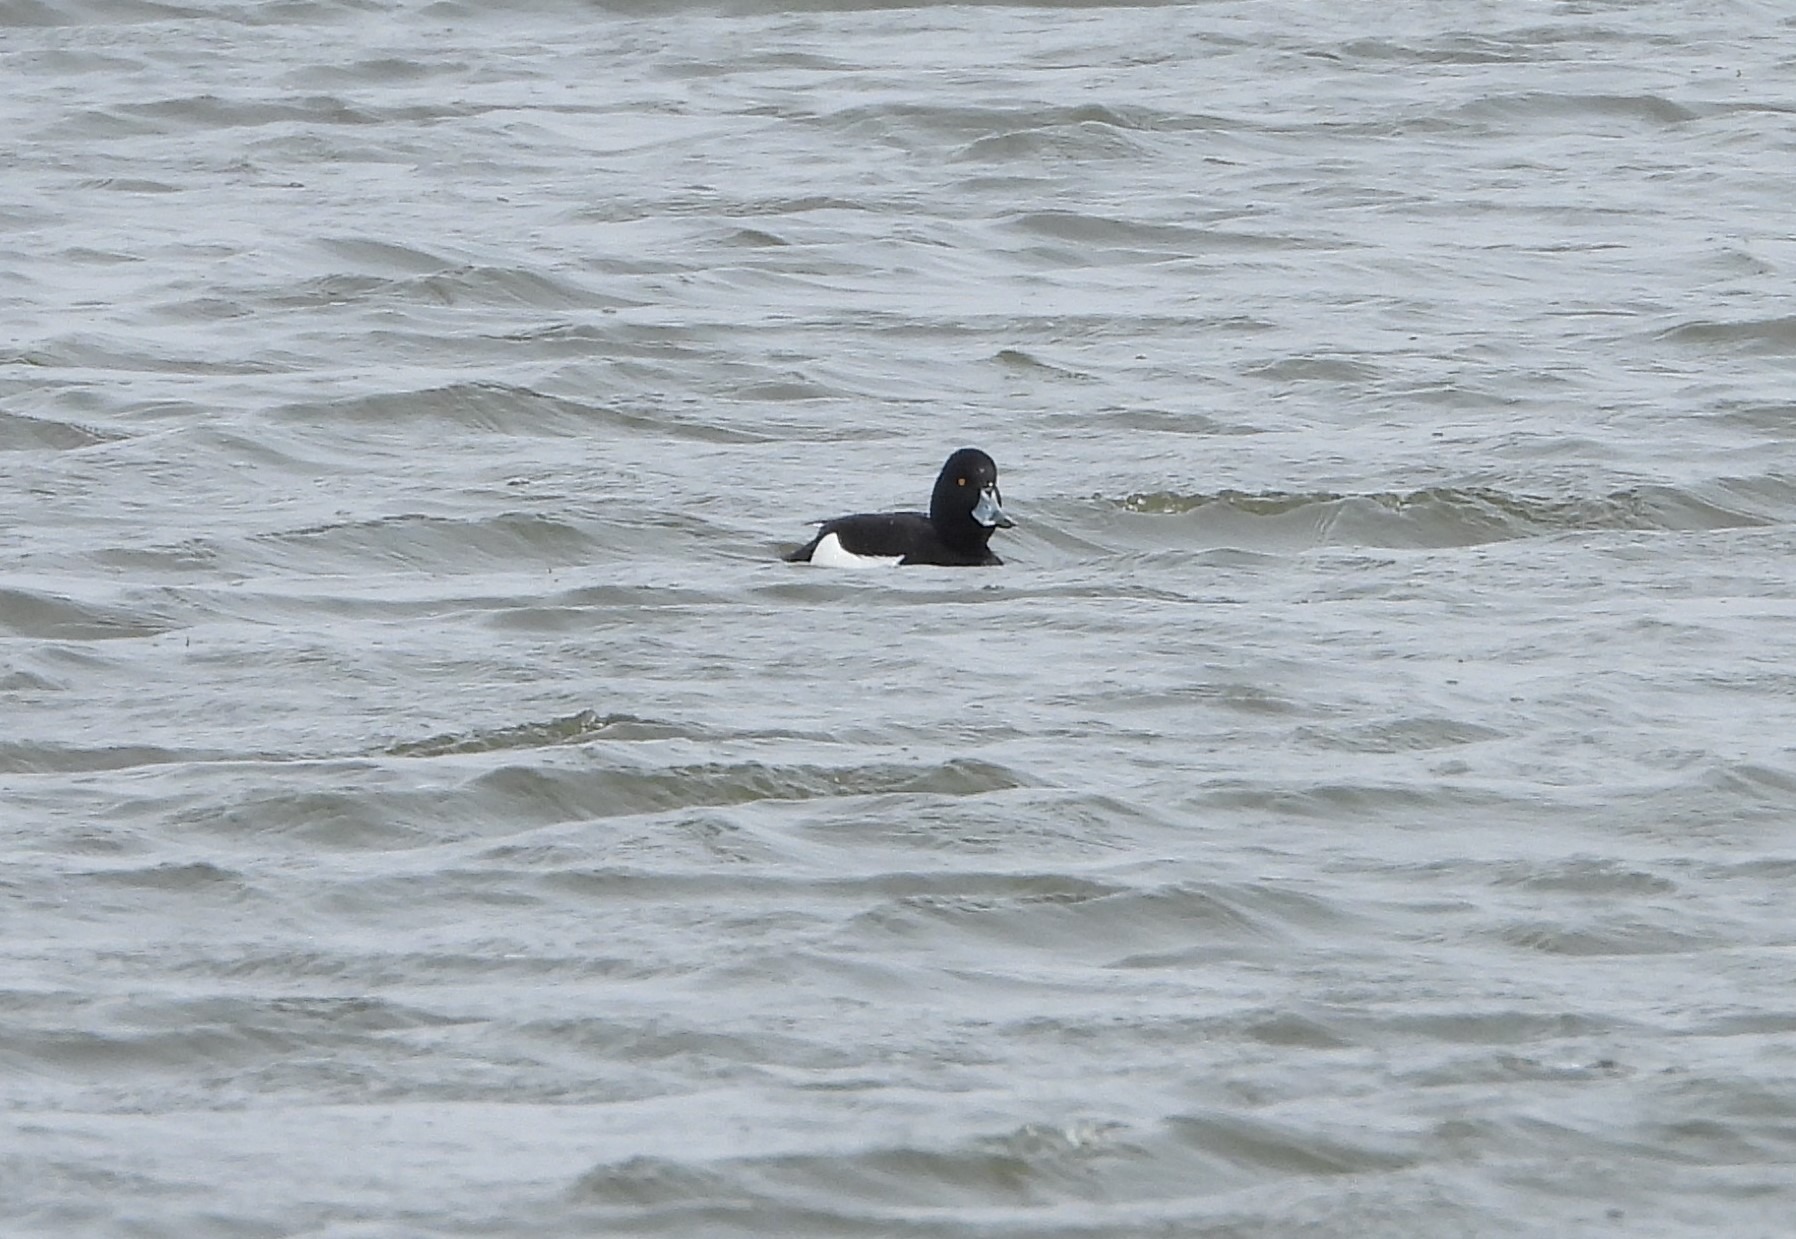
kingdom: Animalia
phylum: Chordata
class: Aves
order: Anseriformes
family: Anatidae
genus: Aythya
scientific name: Aythya fuligula
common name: Troldand
